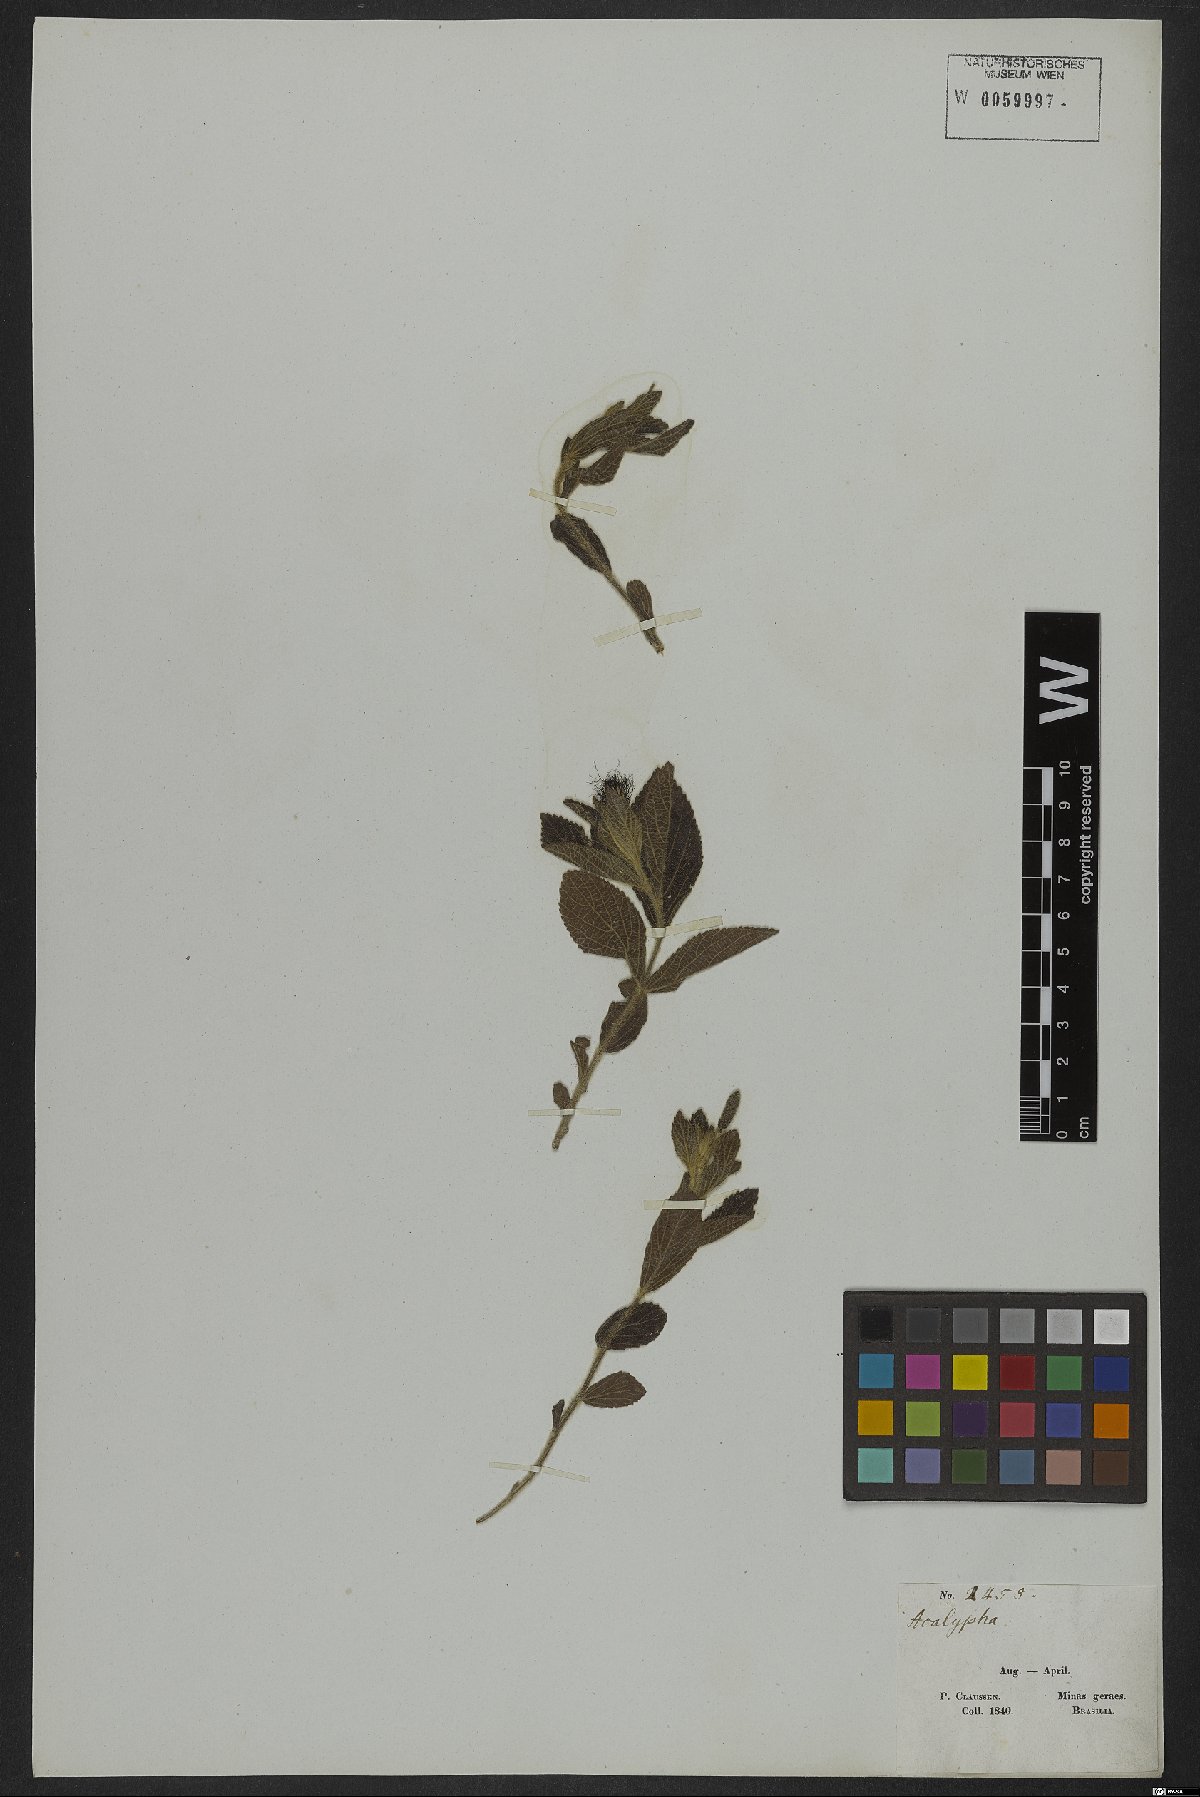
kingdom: Plantae
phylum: Tracheophyta
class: Magnoliopsida
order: Malpighiales
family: Euphorbiaceae
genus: Acalypha
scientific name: Acalypha claussenii
